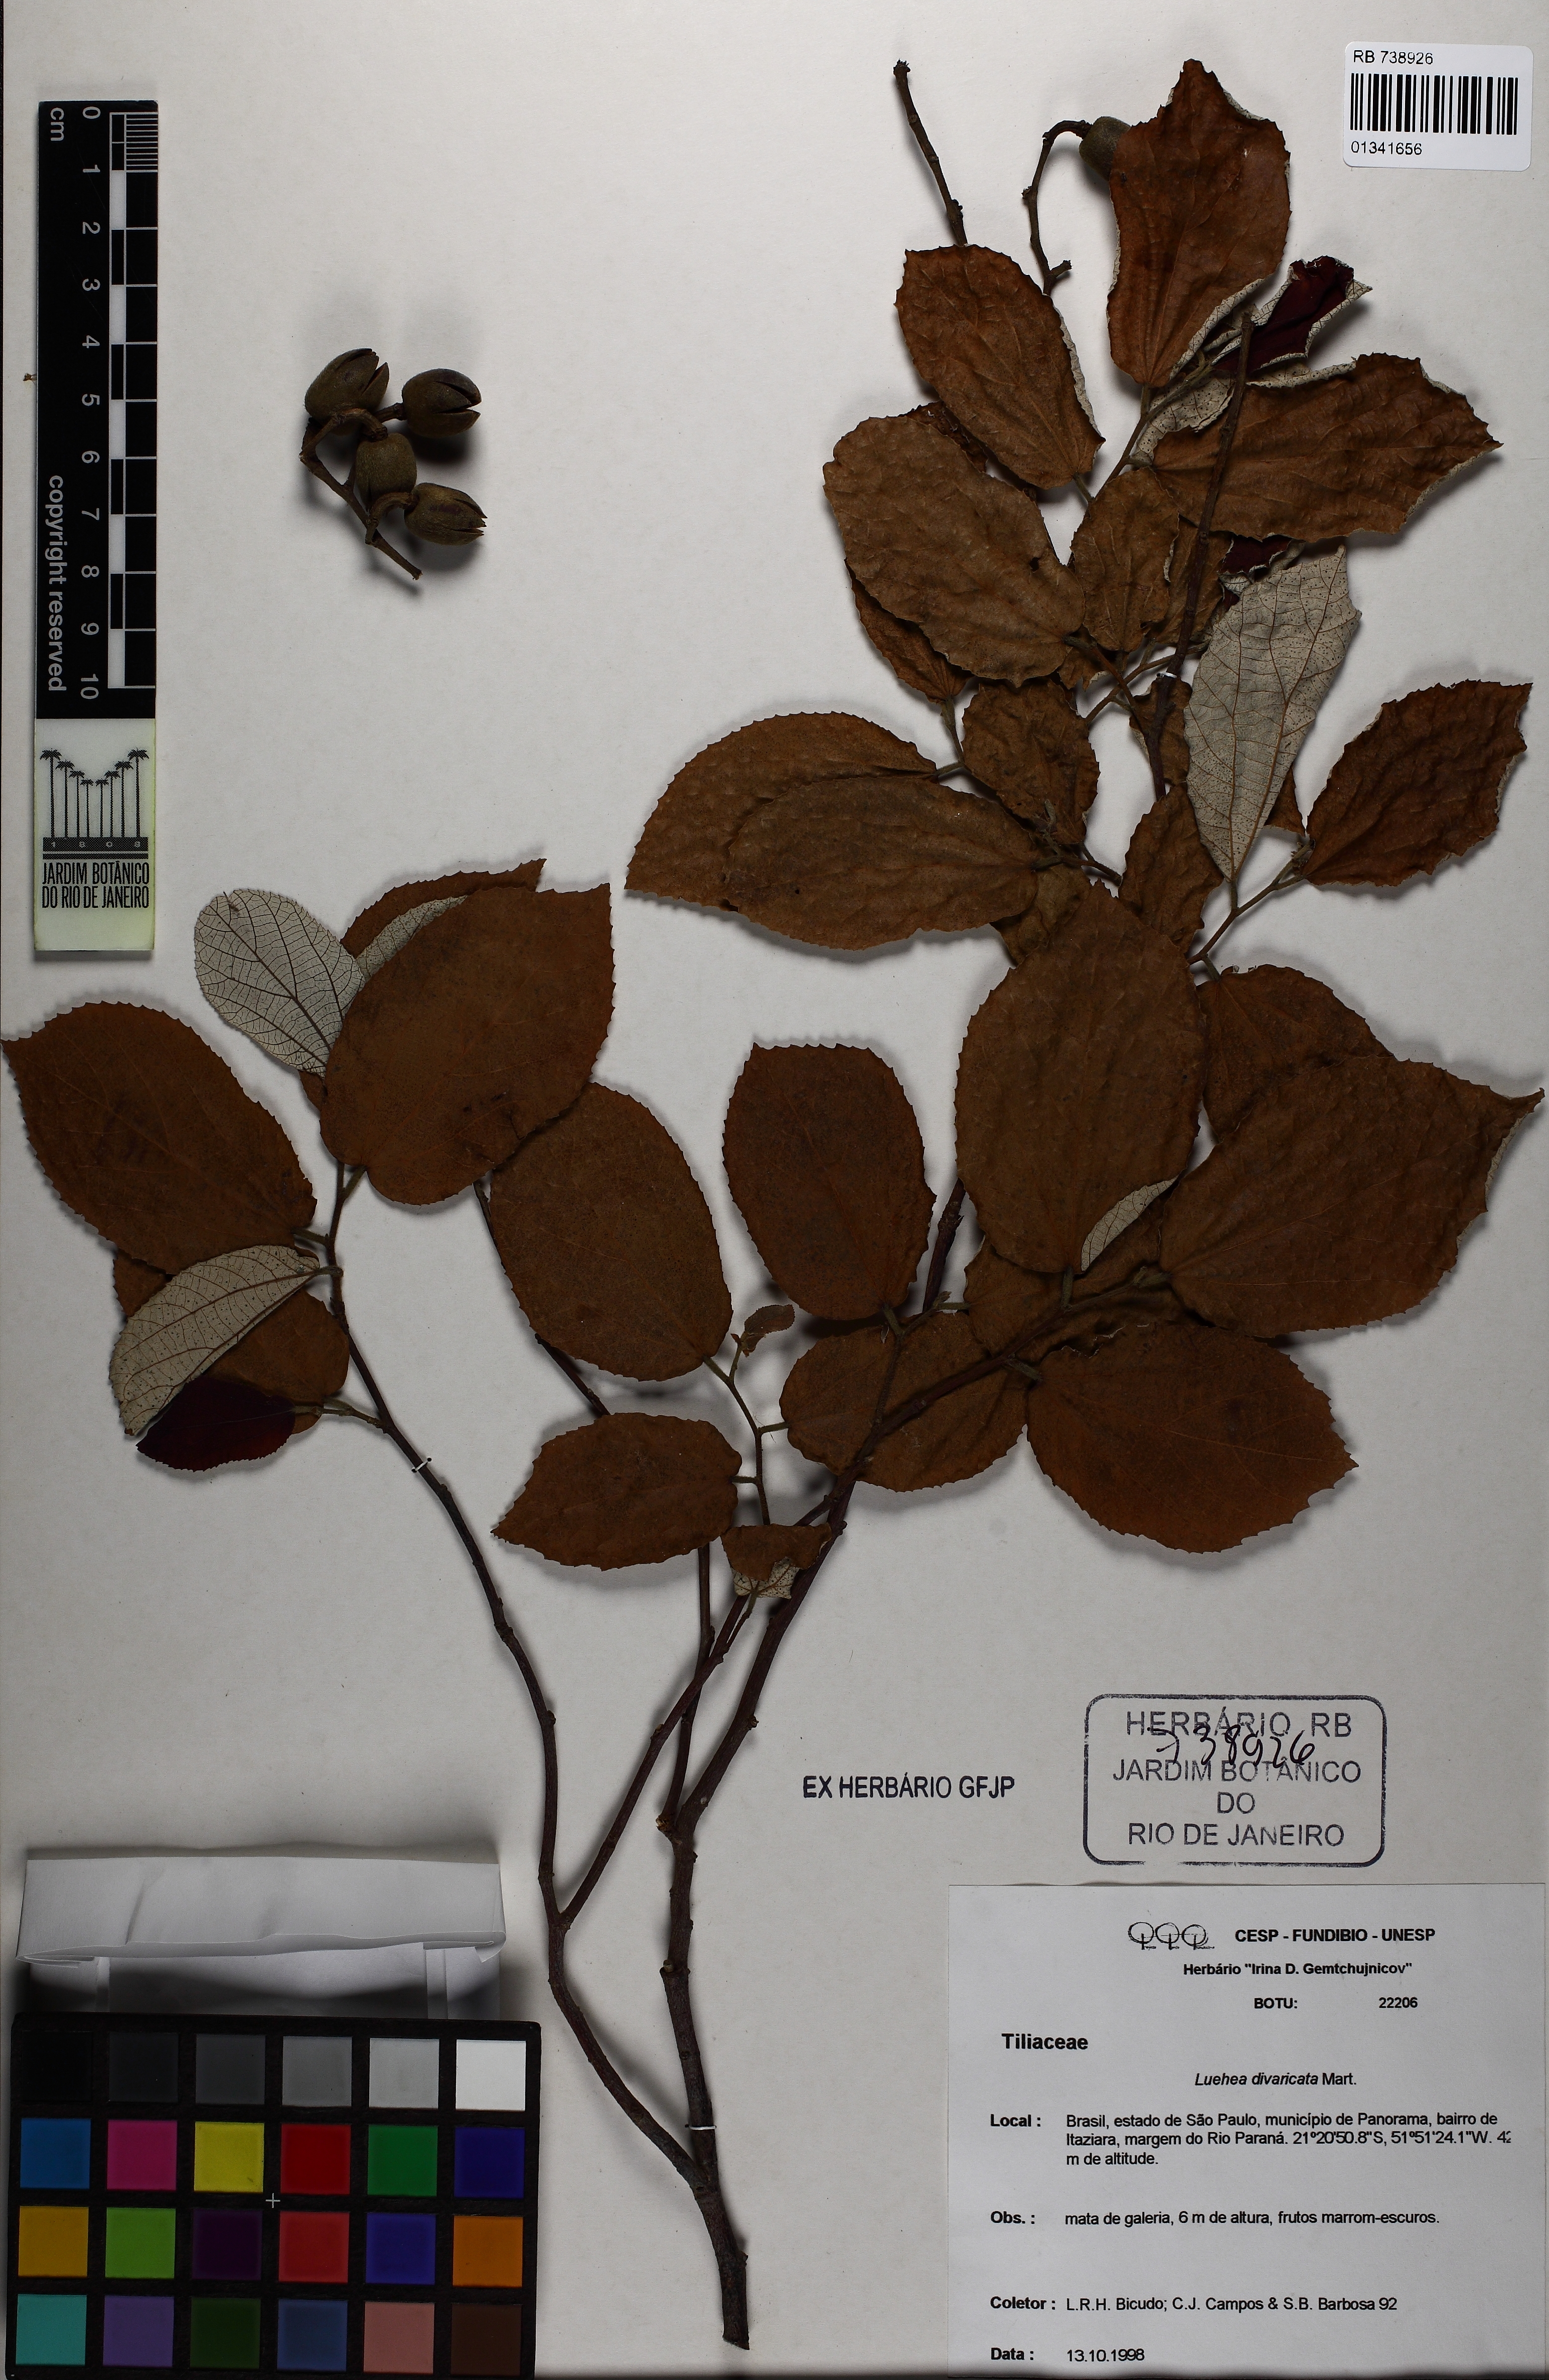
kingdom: Plantae
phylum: Tracheophyta
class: Magnoliopsida
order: Malvales
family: Malvaceae
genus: Luehea
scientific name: Luehea divaricata
